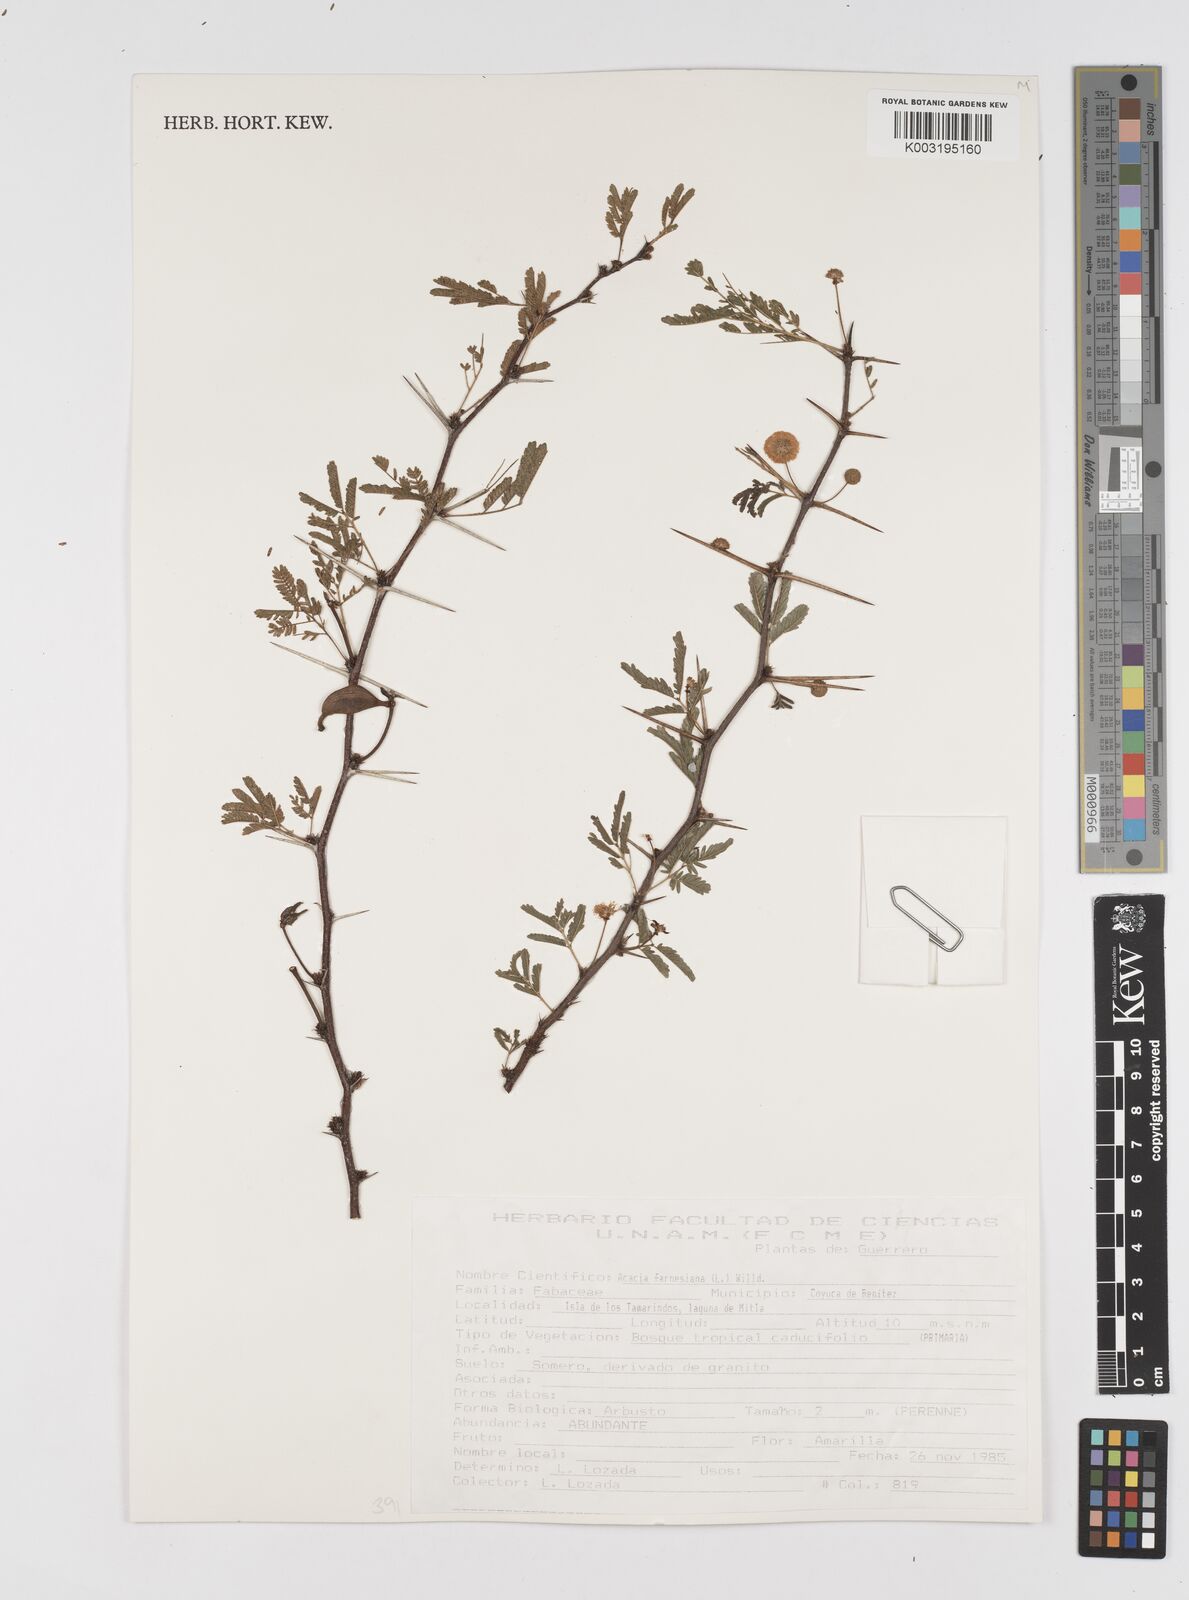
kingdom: Plantae
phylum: Tracheophyta
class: Magnoliopsida
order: Fabales
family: Fabaceae
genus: Vachellia
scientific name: Vachellia farnesiana
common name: Sweet acacia
